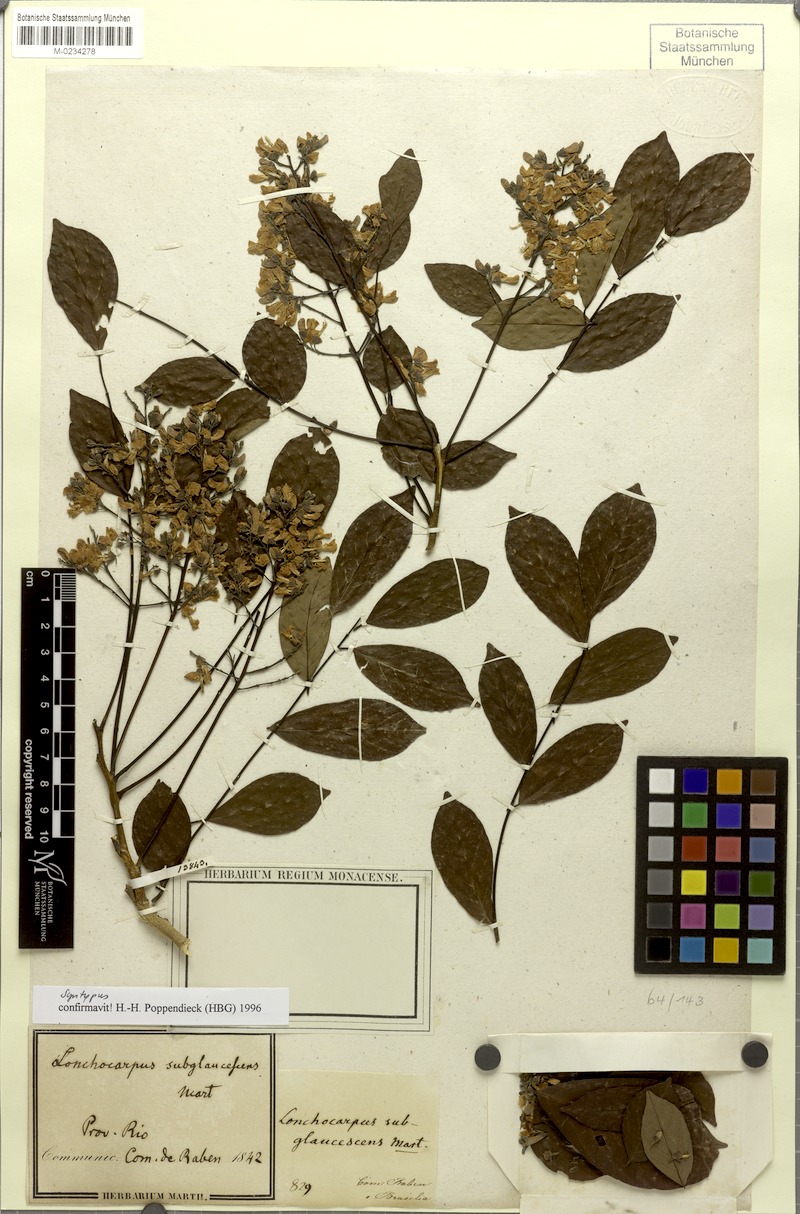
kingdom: Plantae
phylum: Tracheophyta
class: Magnoliopsida
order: Fabales
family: Fabaceae
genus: Lonchocarpus
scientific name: Lonchocarpus subglaucescens
